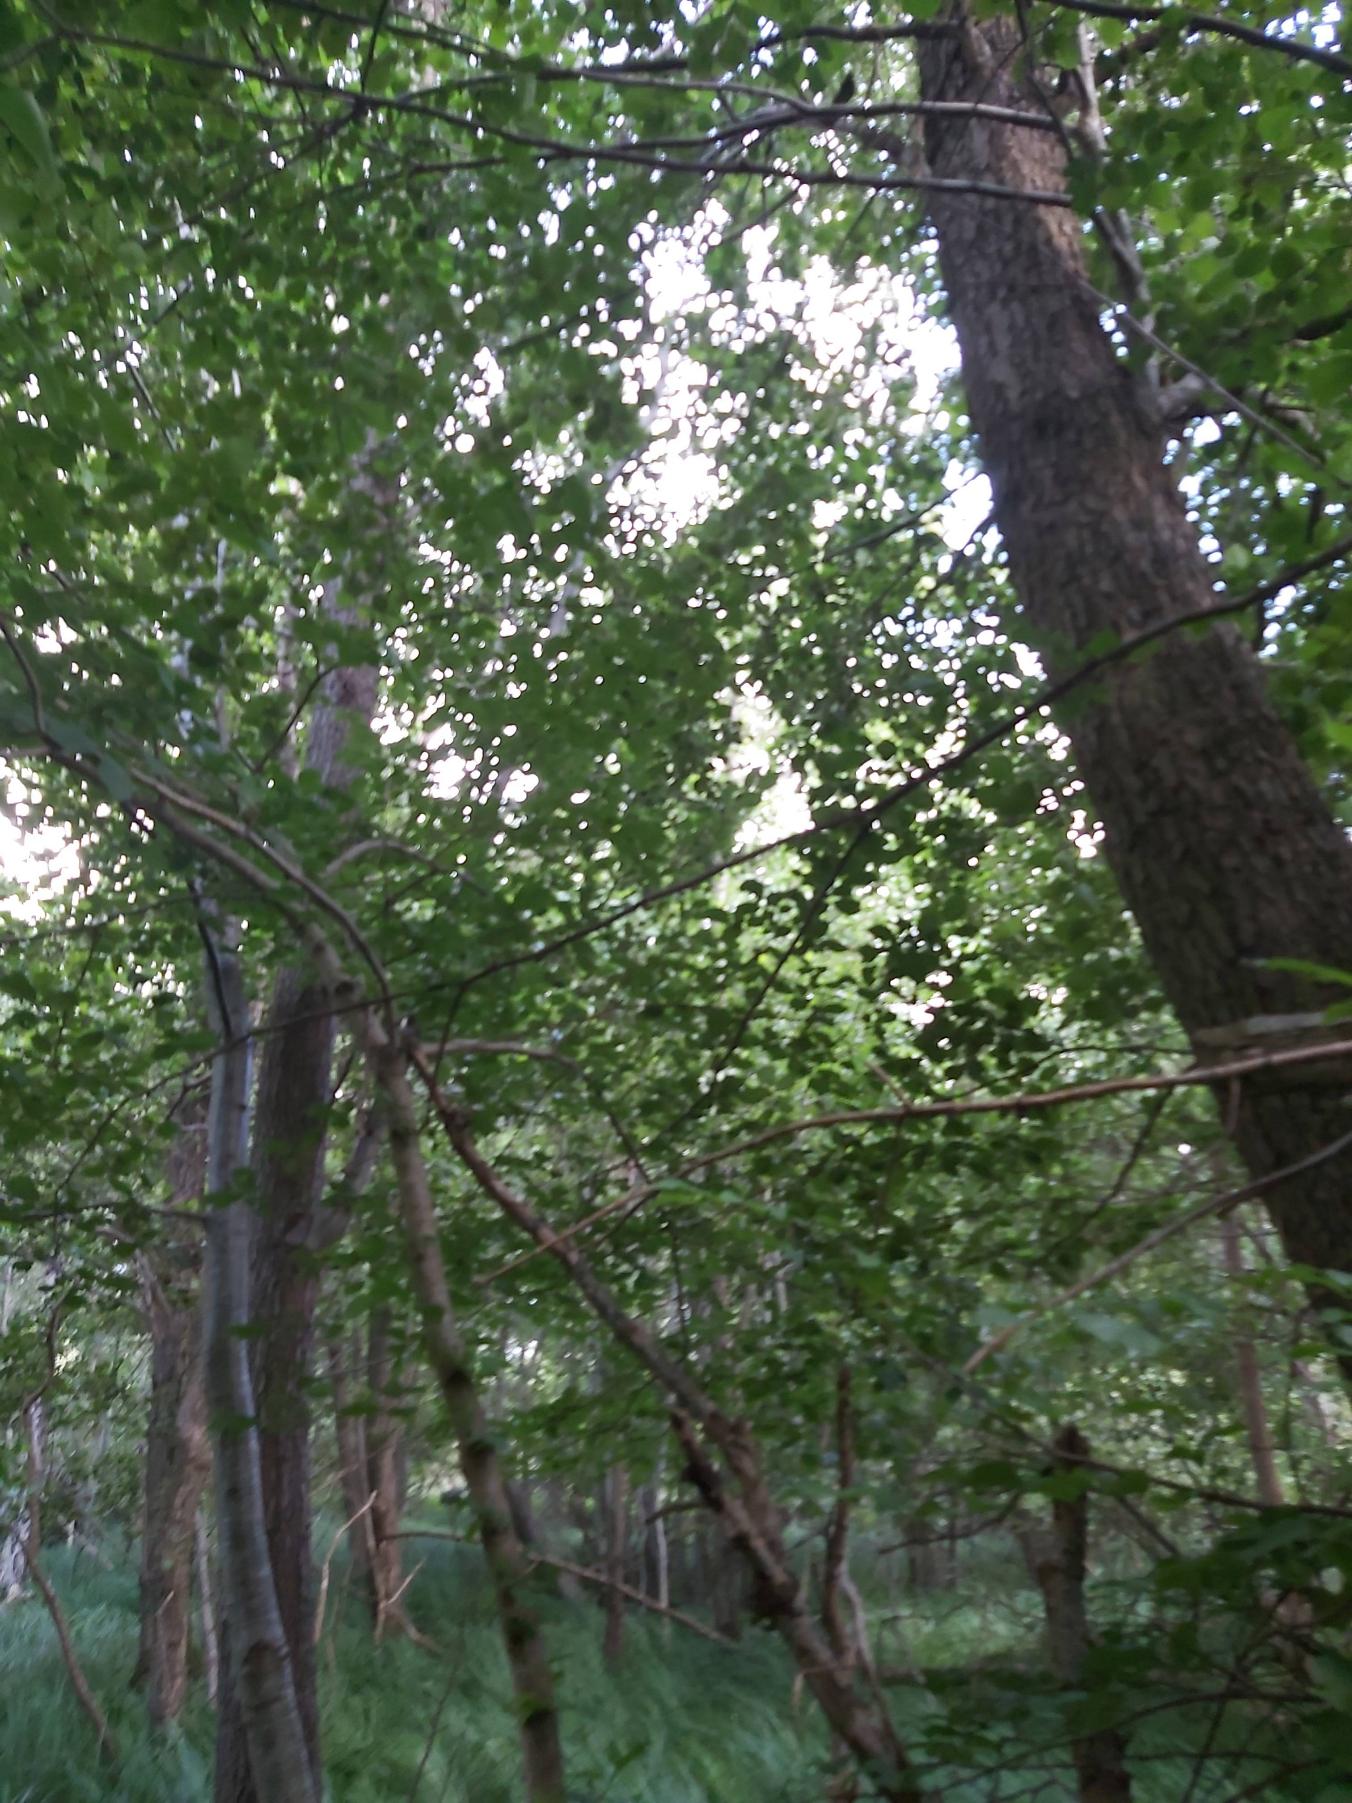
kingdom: Plantae
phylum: Tracheophyta
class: Magnoliopsida
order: Rosales
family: Ulmaceae
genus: Ulmus
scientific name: Ulmus
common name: Elmeslægten
